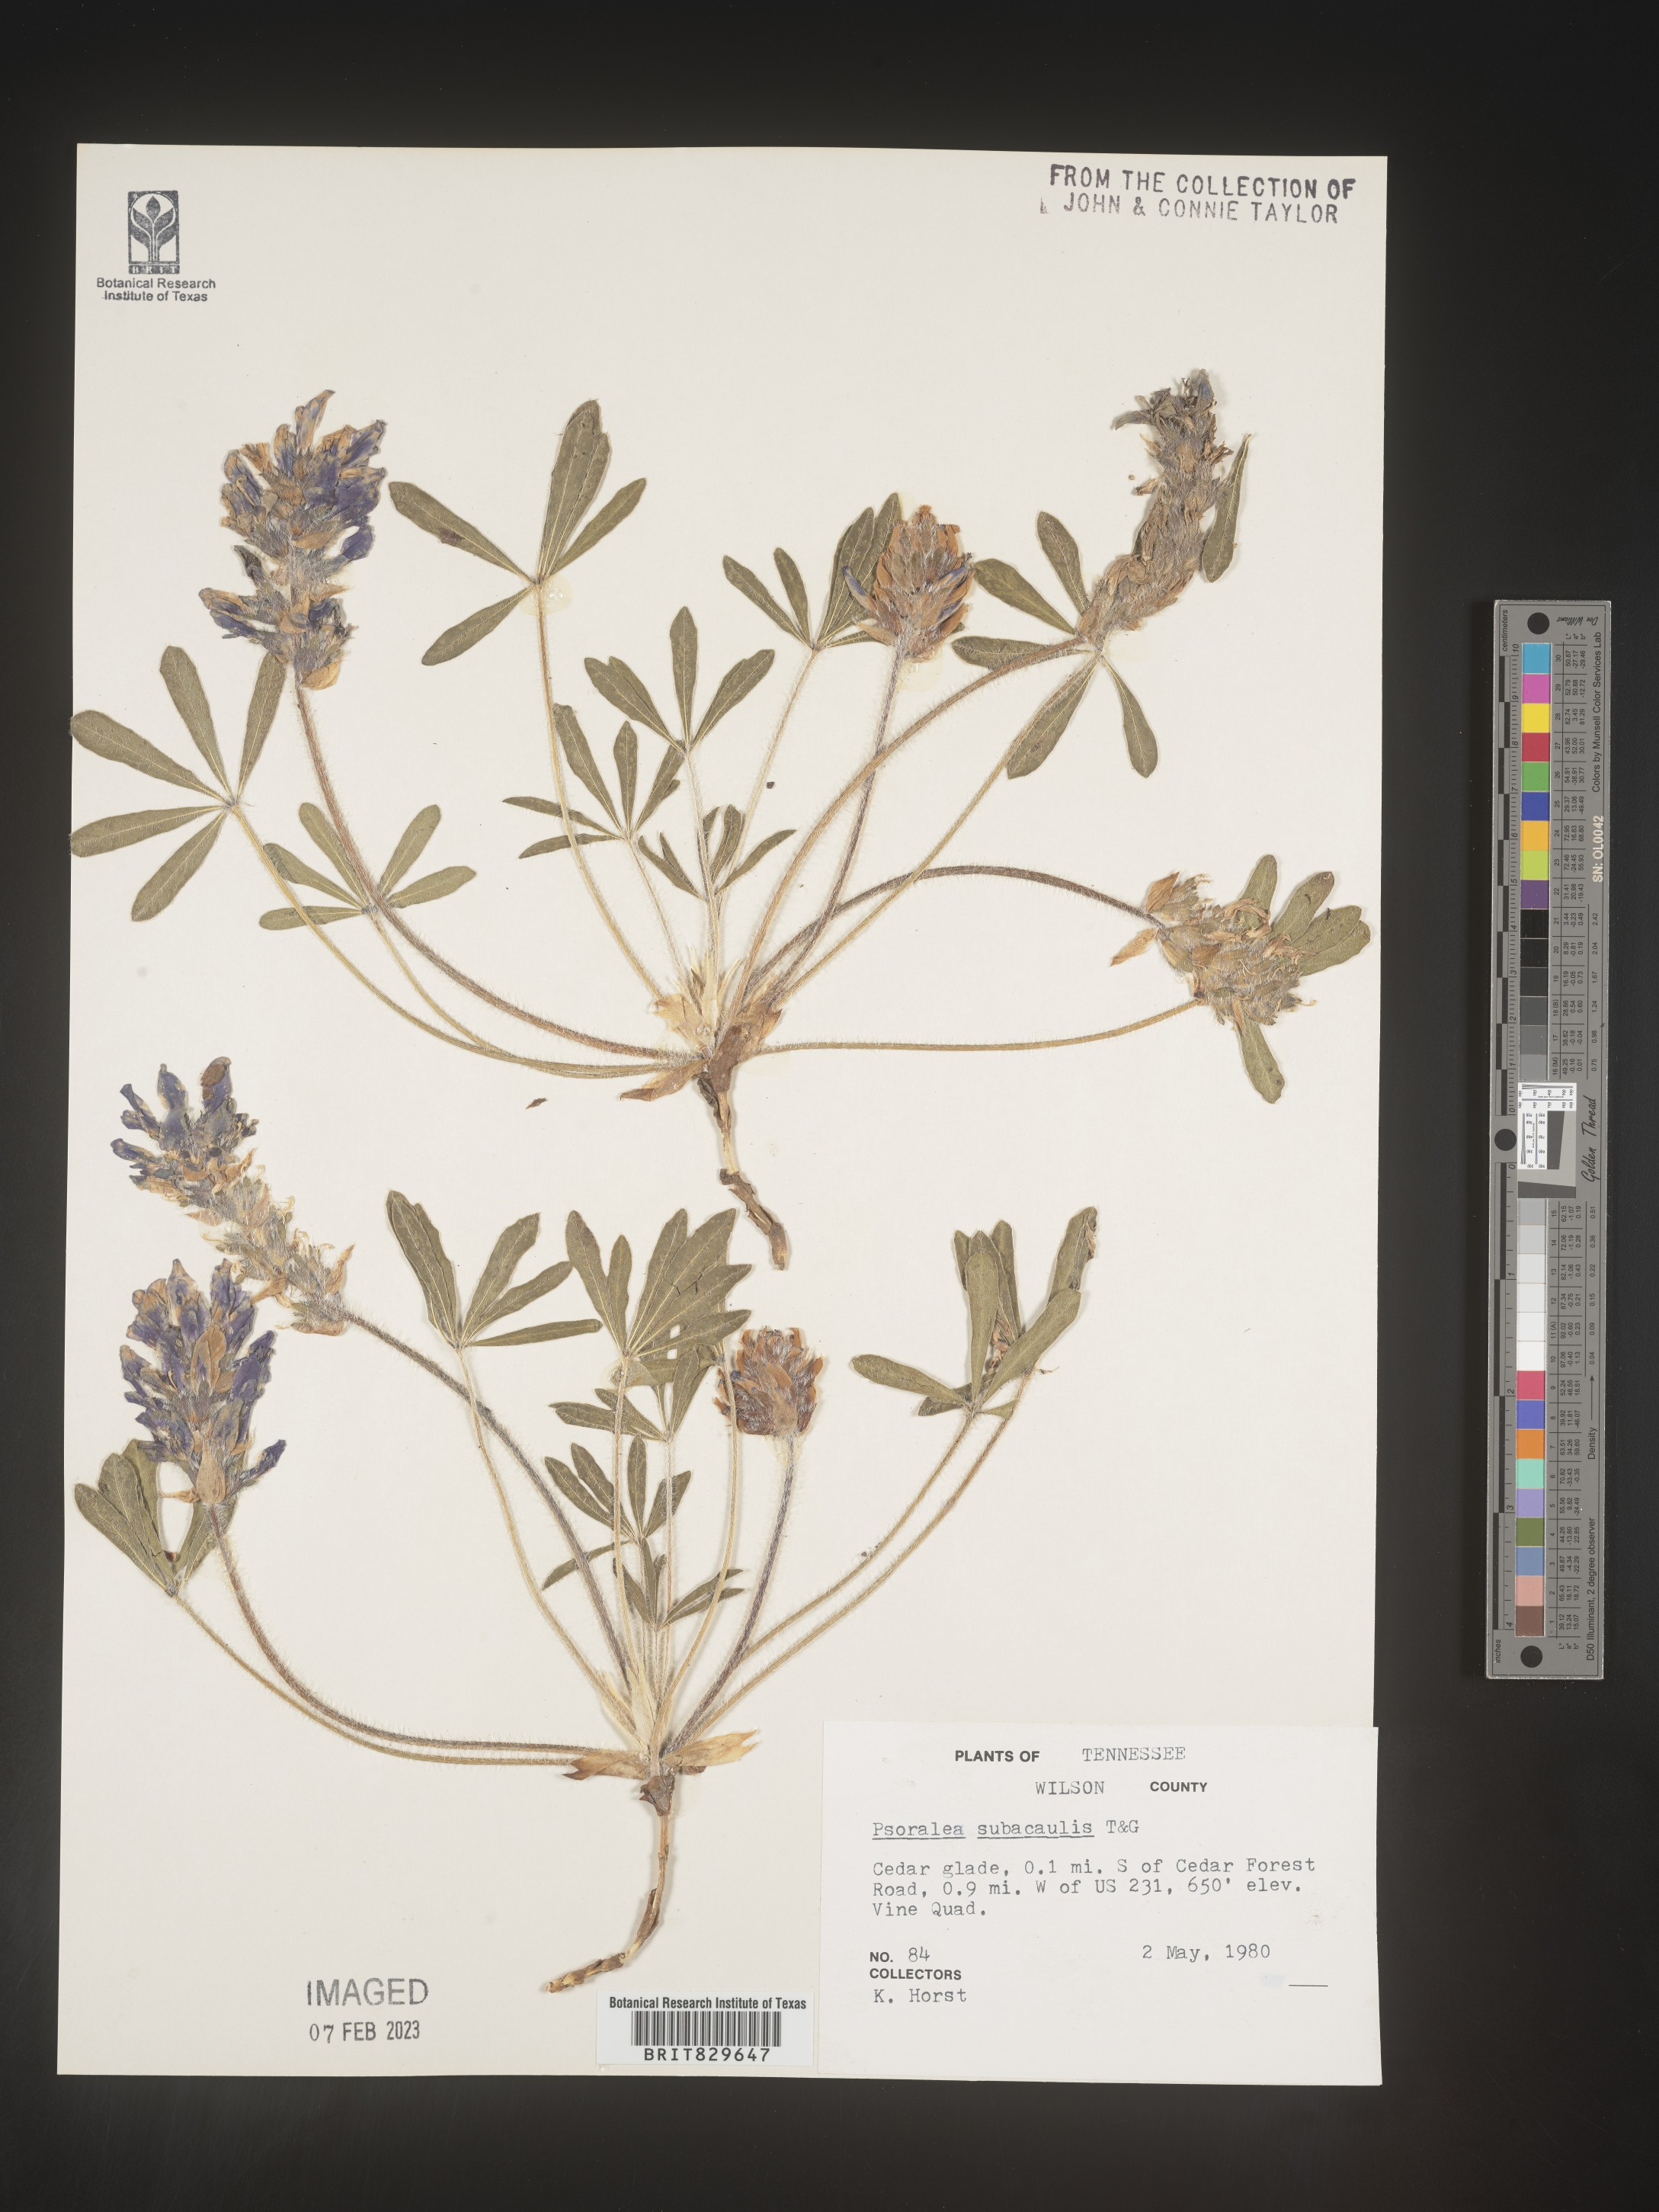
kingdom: Plantae
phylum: Tracheophyta
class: Magnoliopsida
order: Fabales
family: Fabaceae
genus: Psoralea
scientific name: Psoralea
